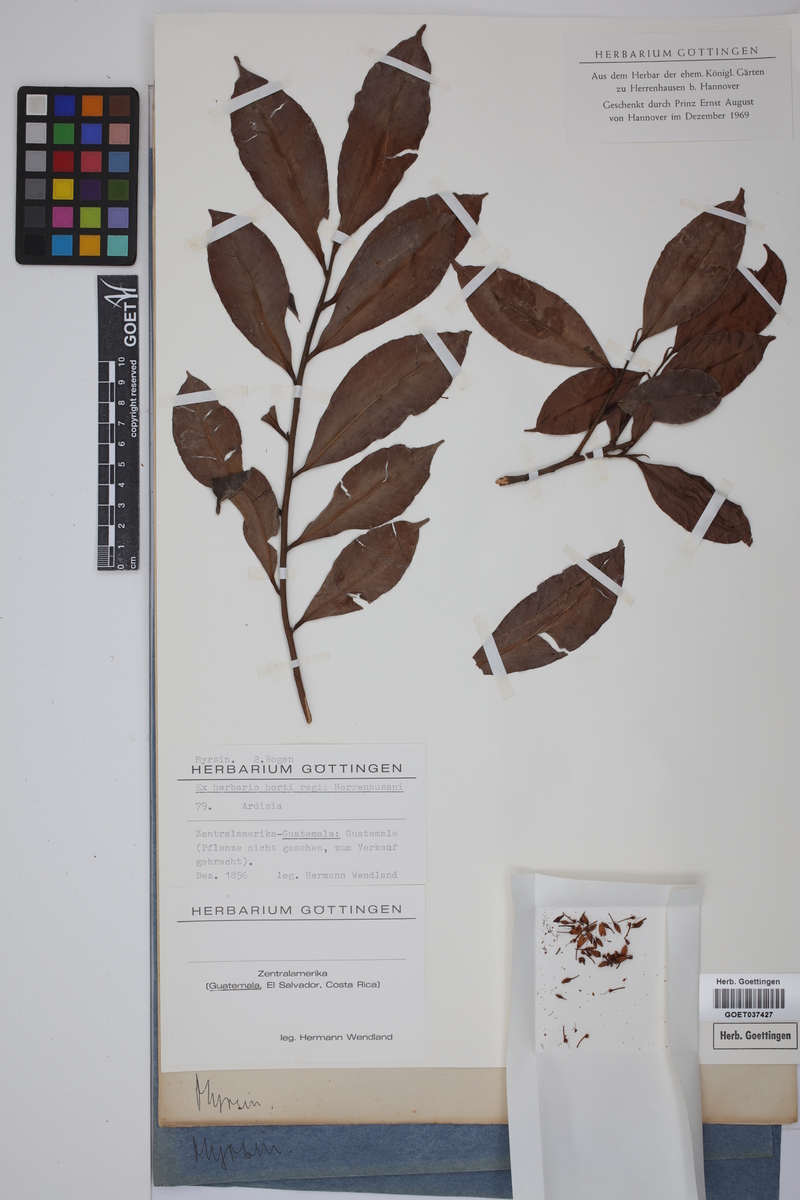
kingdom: Plantae
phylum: Tracheophyta
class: Magnoliopsida
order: Ericales
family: Primulaceae
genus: Ardisia
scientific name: Ardisia
